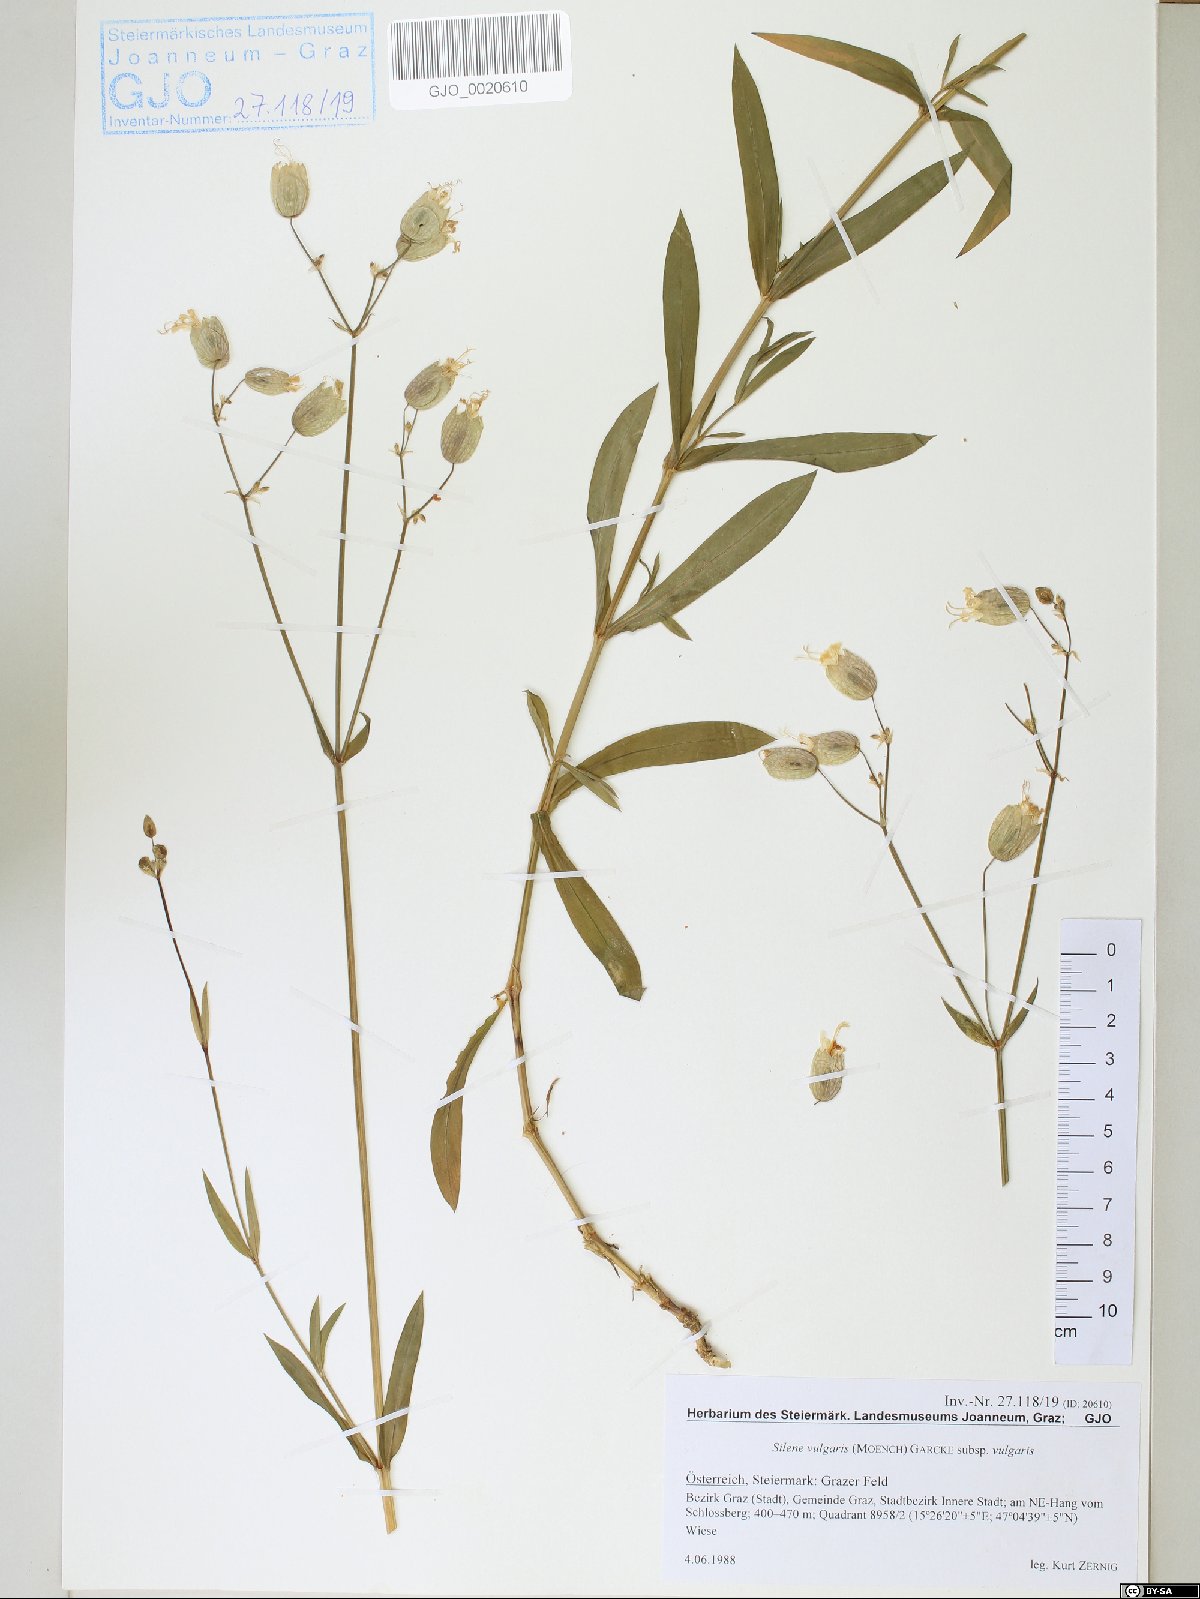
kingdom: Plantae
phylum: Tracheophyta
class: Magnoliopsida
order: Caryophyllales
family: Caryophyllaceae
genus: Silene
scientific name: Silene vulgaris
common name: Bladder campion
